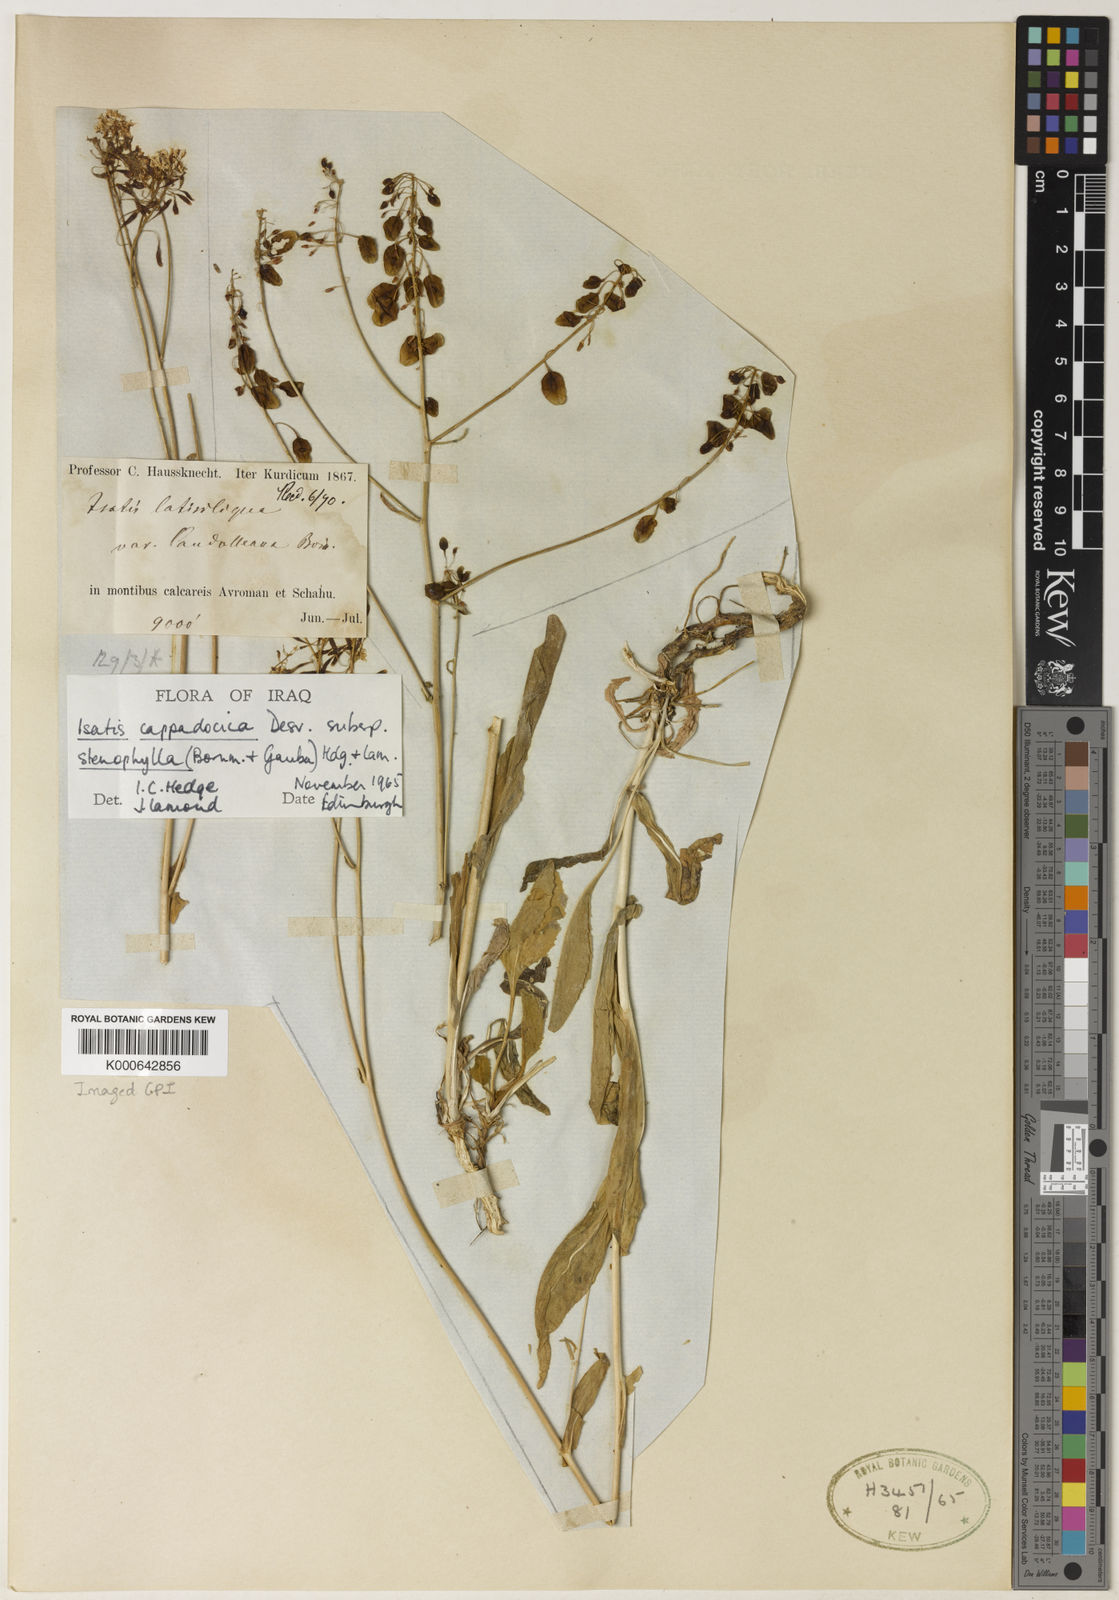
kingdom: Plantae
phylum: Tracheophyta
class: Magnoliopsida
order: Brassicales
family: Brassicaceae
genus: Isatis
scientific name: Isatis cappadocica
